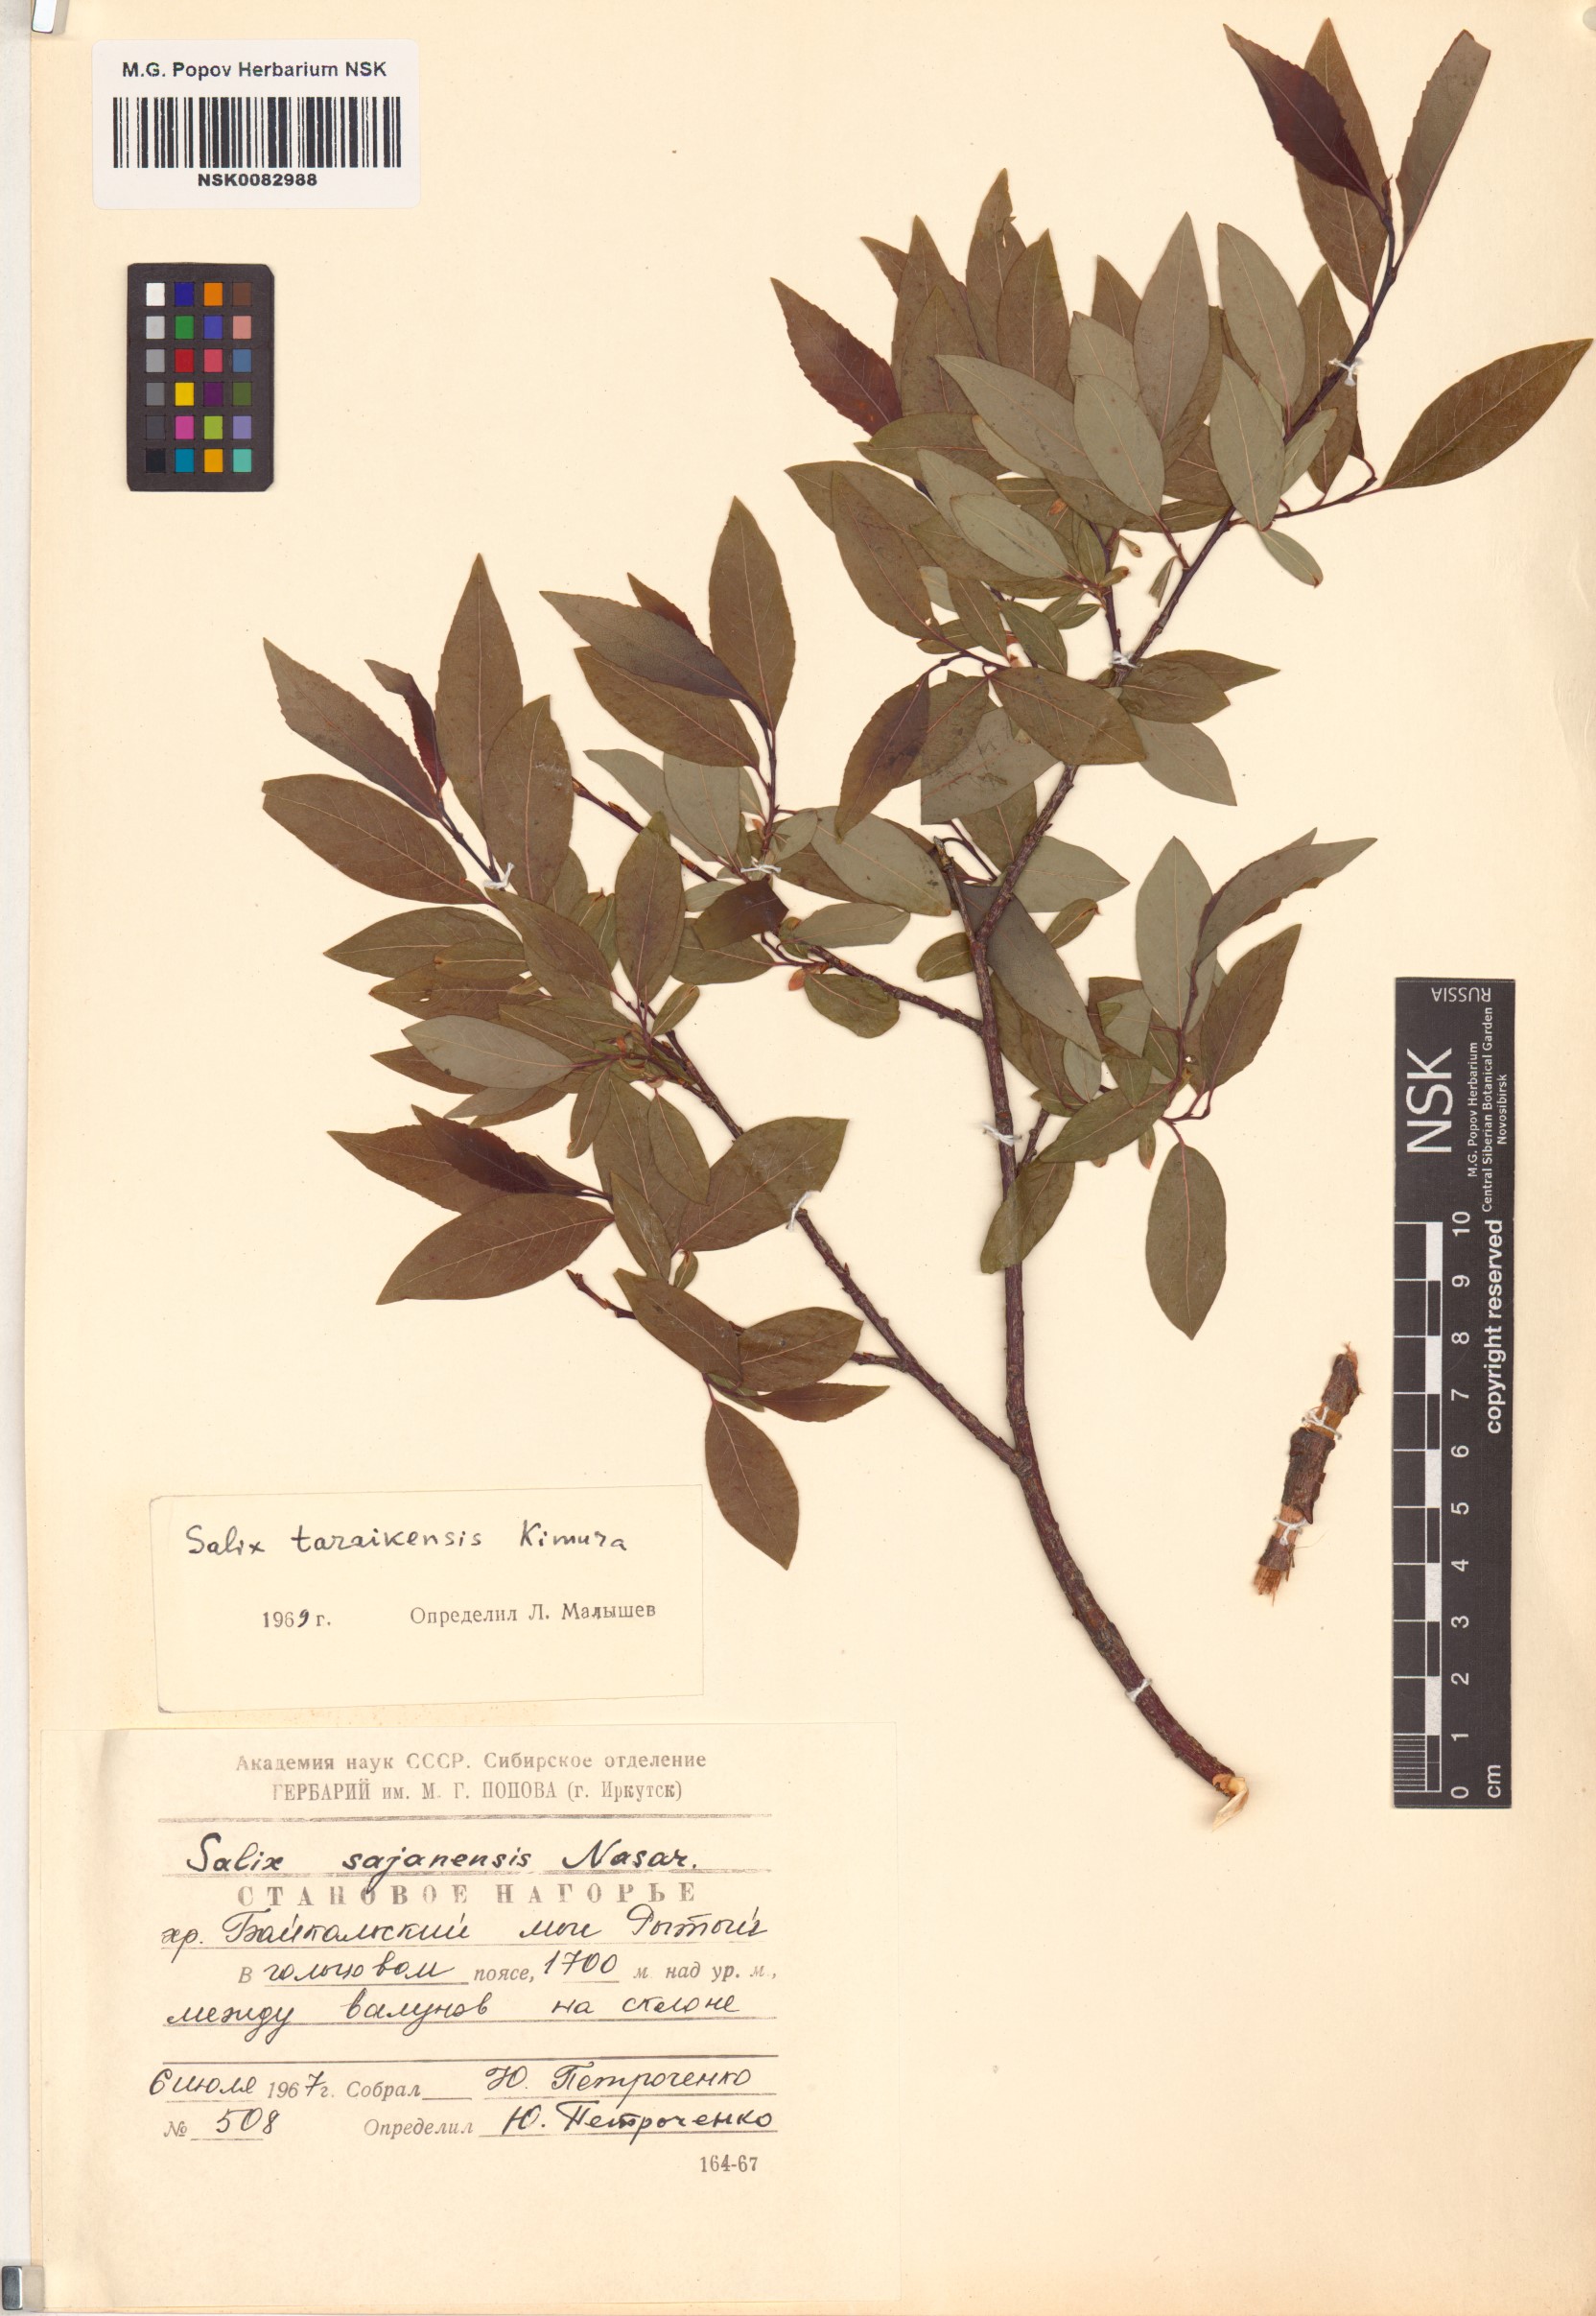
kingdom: Plantae
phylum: Tracheophyta
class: Magnoliopsida
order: Malpighiales
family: Salicaceae
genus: Salix
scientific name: Salix taraikensis
